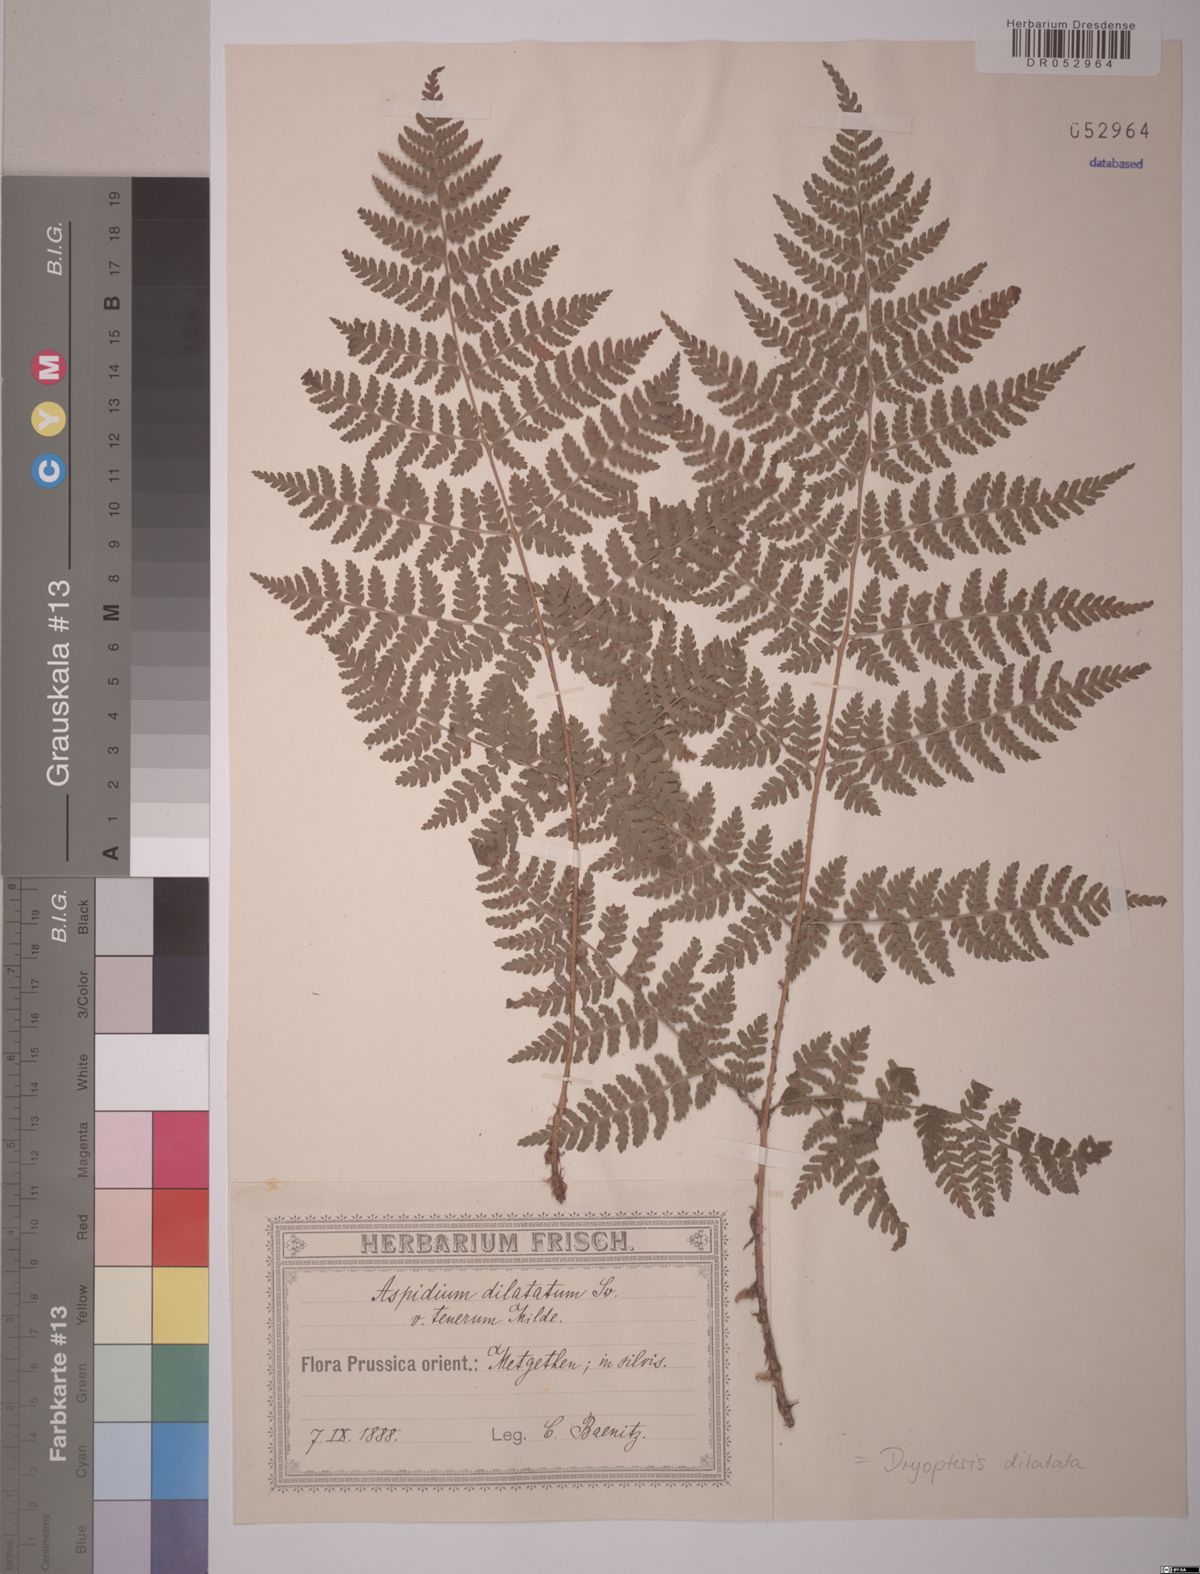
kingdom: Plantae
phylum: Tracheophyta
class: Polypodiopsida
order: Polypodiales
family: Dryopteridaceae
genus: Dryopteris
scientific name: Dryopteris dilatata
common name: Broad buckler-fern
